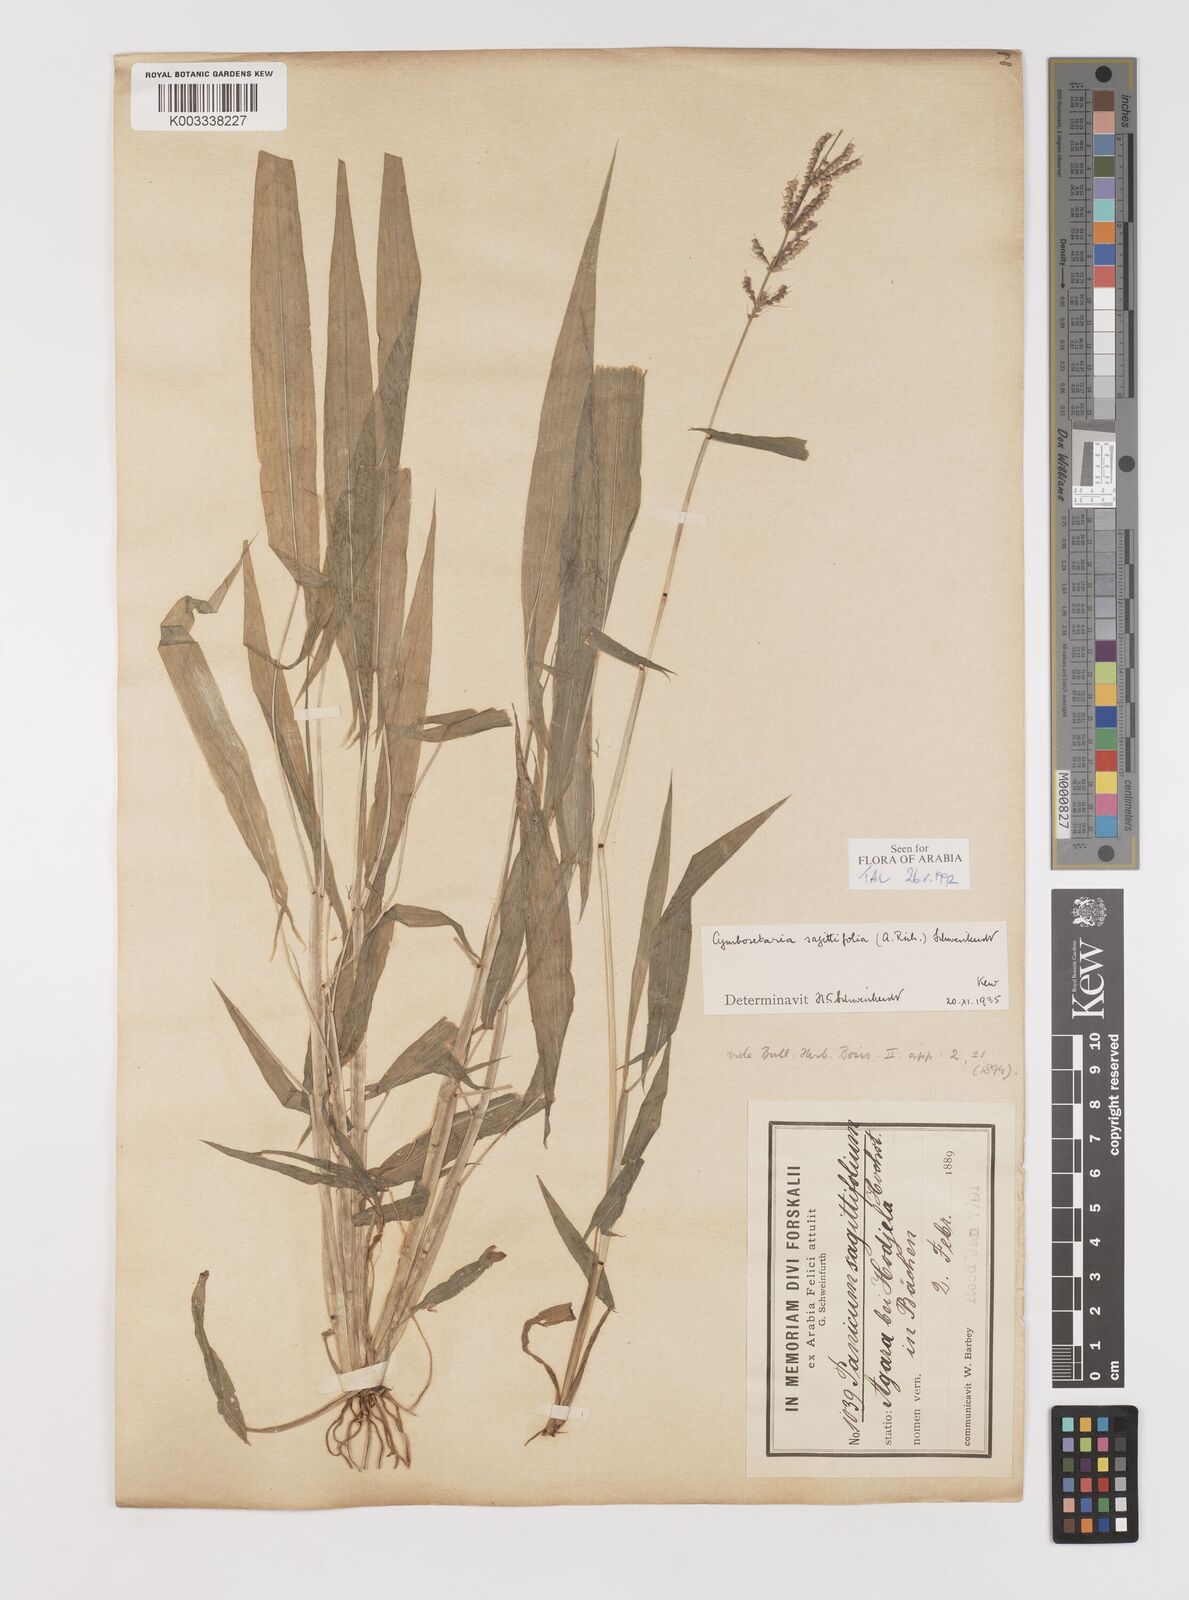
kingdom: Plantae
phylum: Tracheophyta
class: Liliopsida
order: Poales
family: Poaceae
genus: Setaria
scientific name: Setaria sagittifolia
